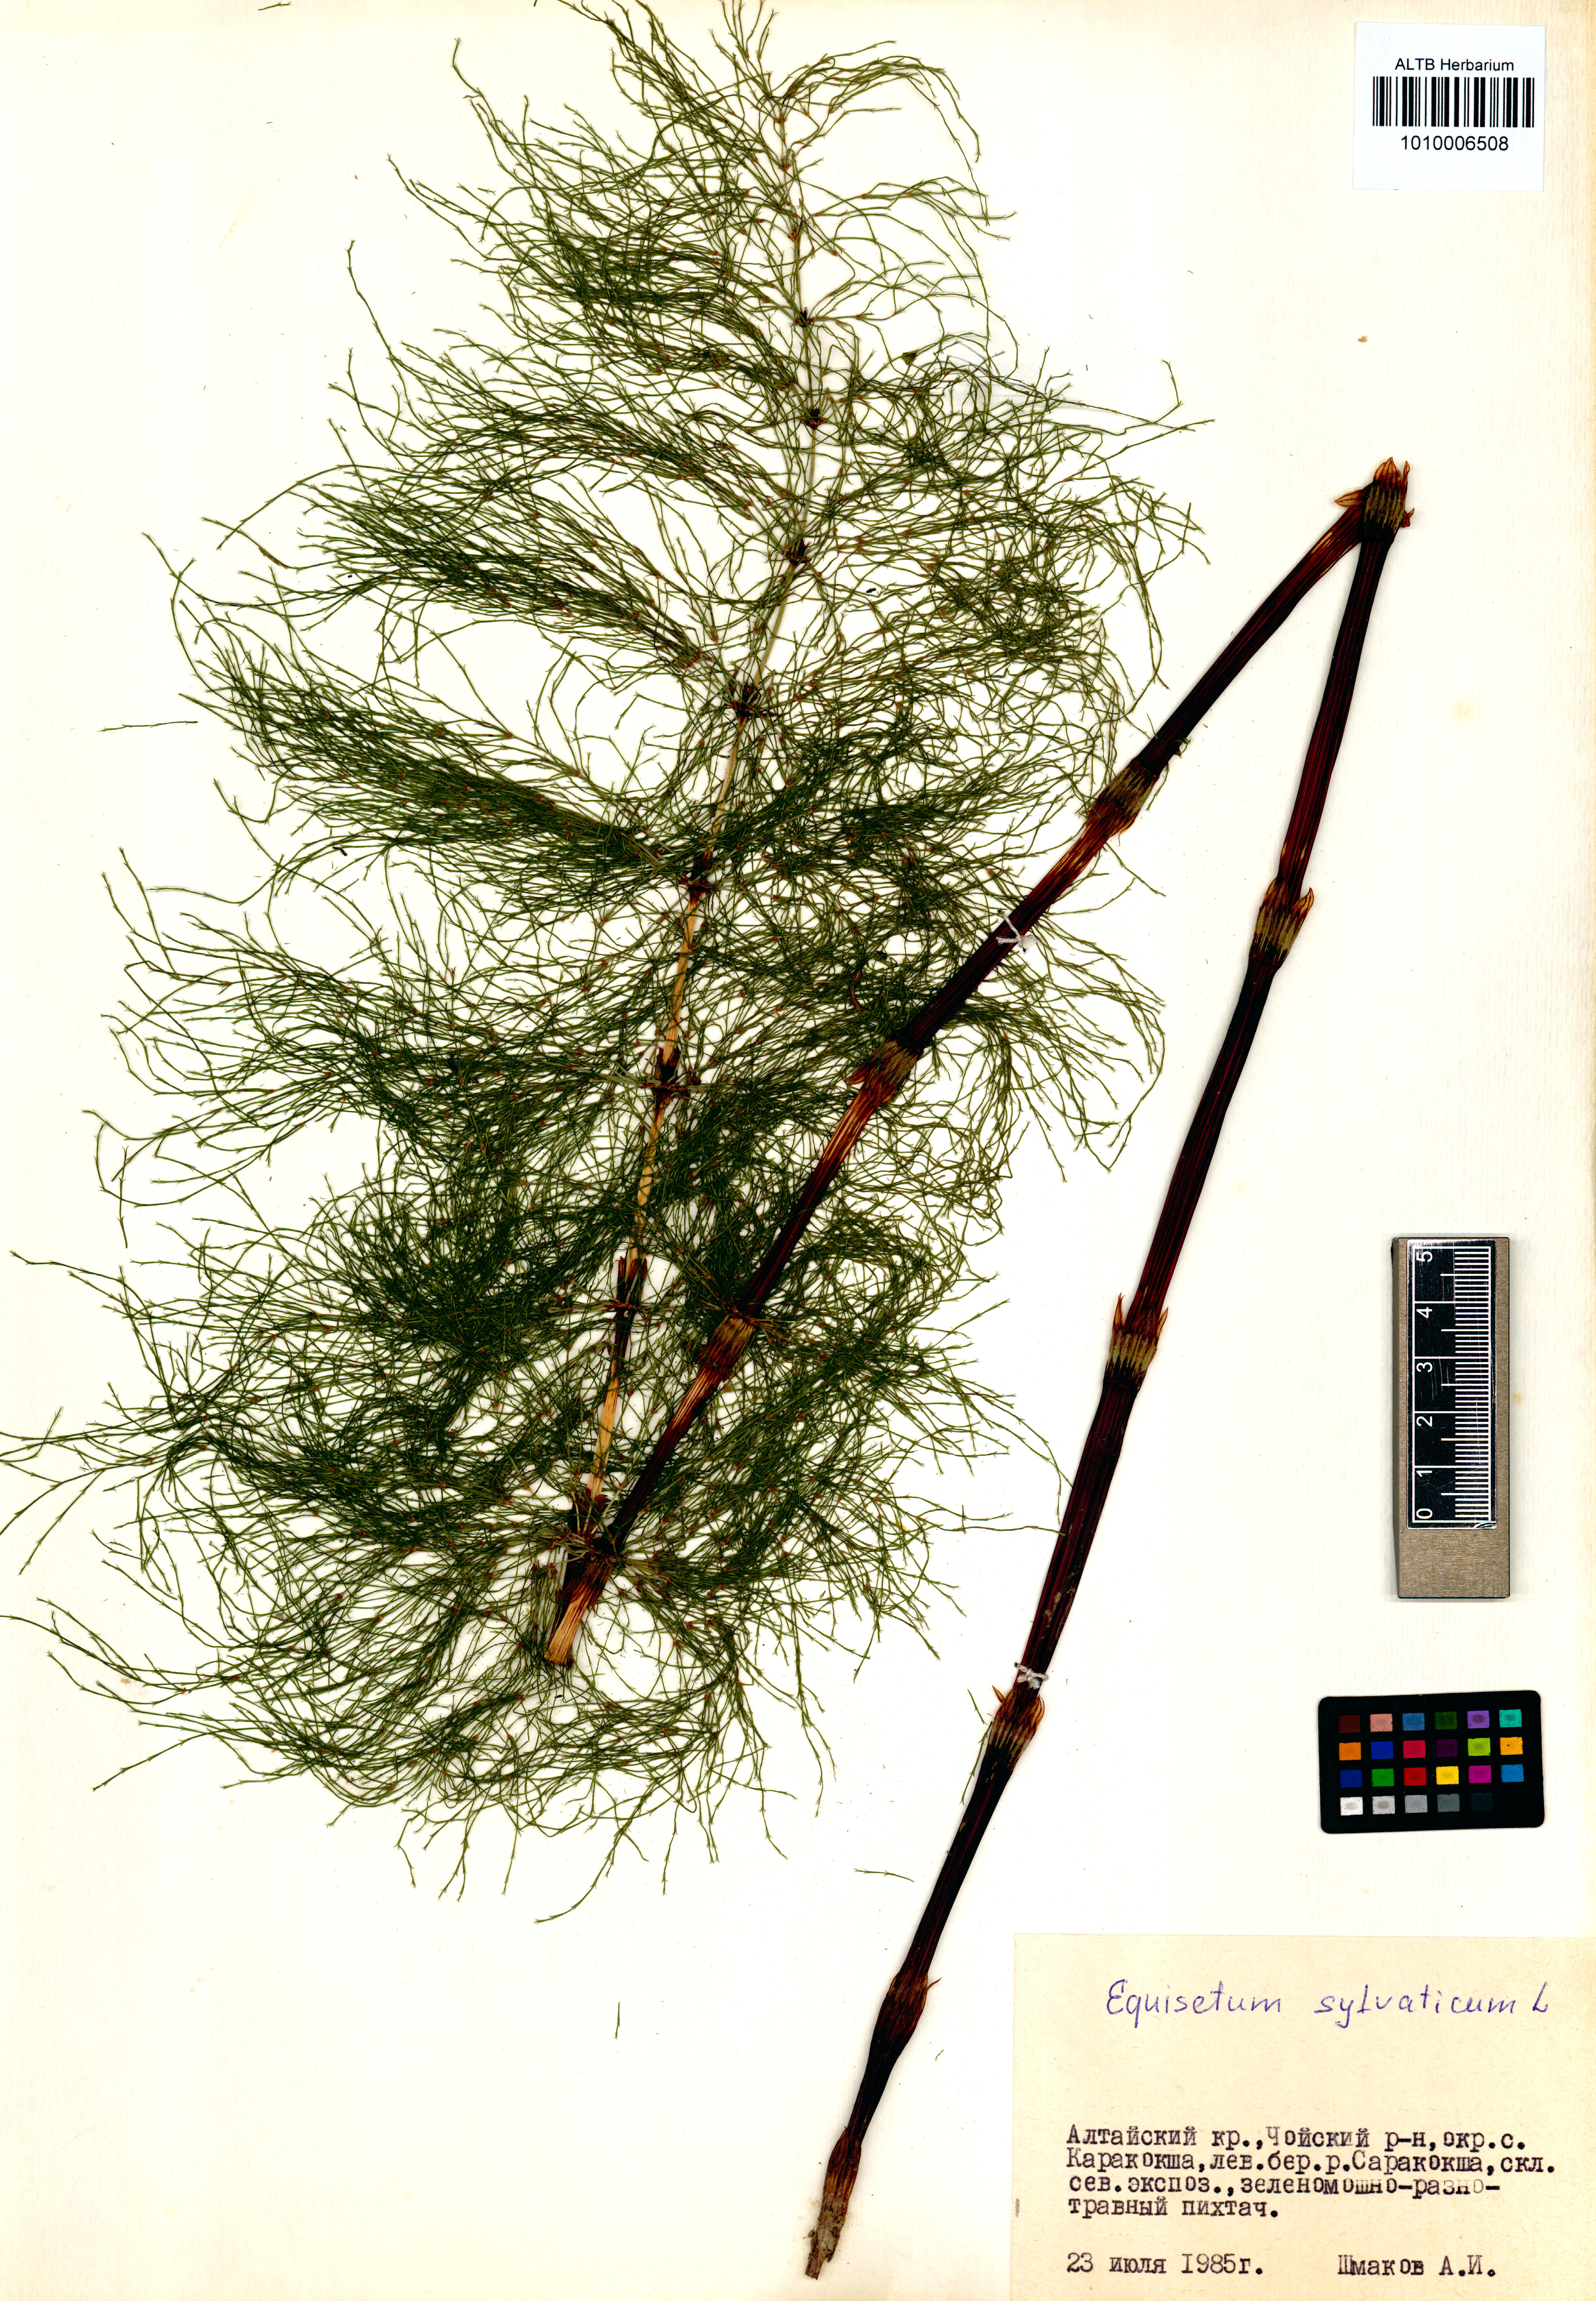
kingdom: Plantae
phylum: Tracheophyta
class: Polypodiopsida
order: Equisetales
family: Equisetaceae
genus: Equisetum
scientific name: Equisetum sylvaticum
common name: Wood horsetail
